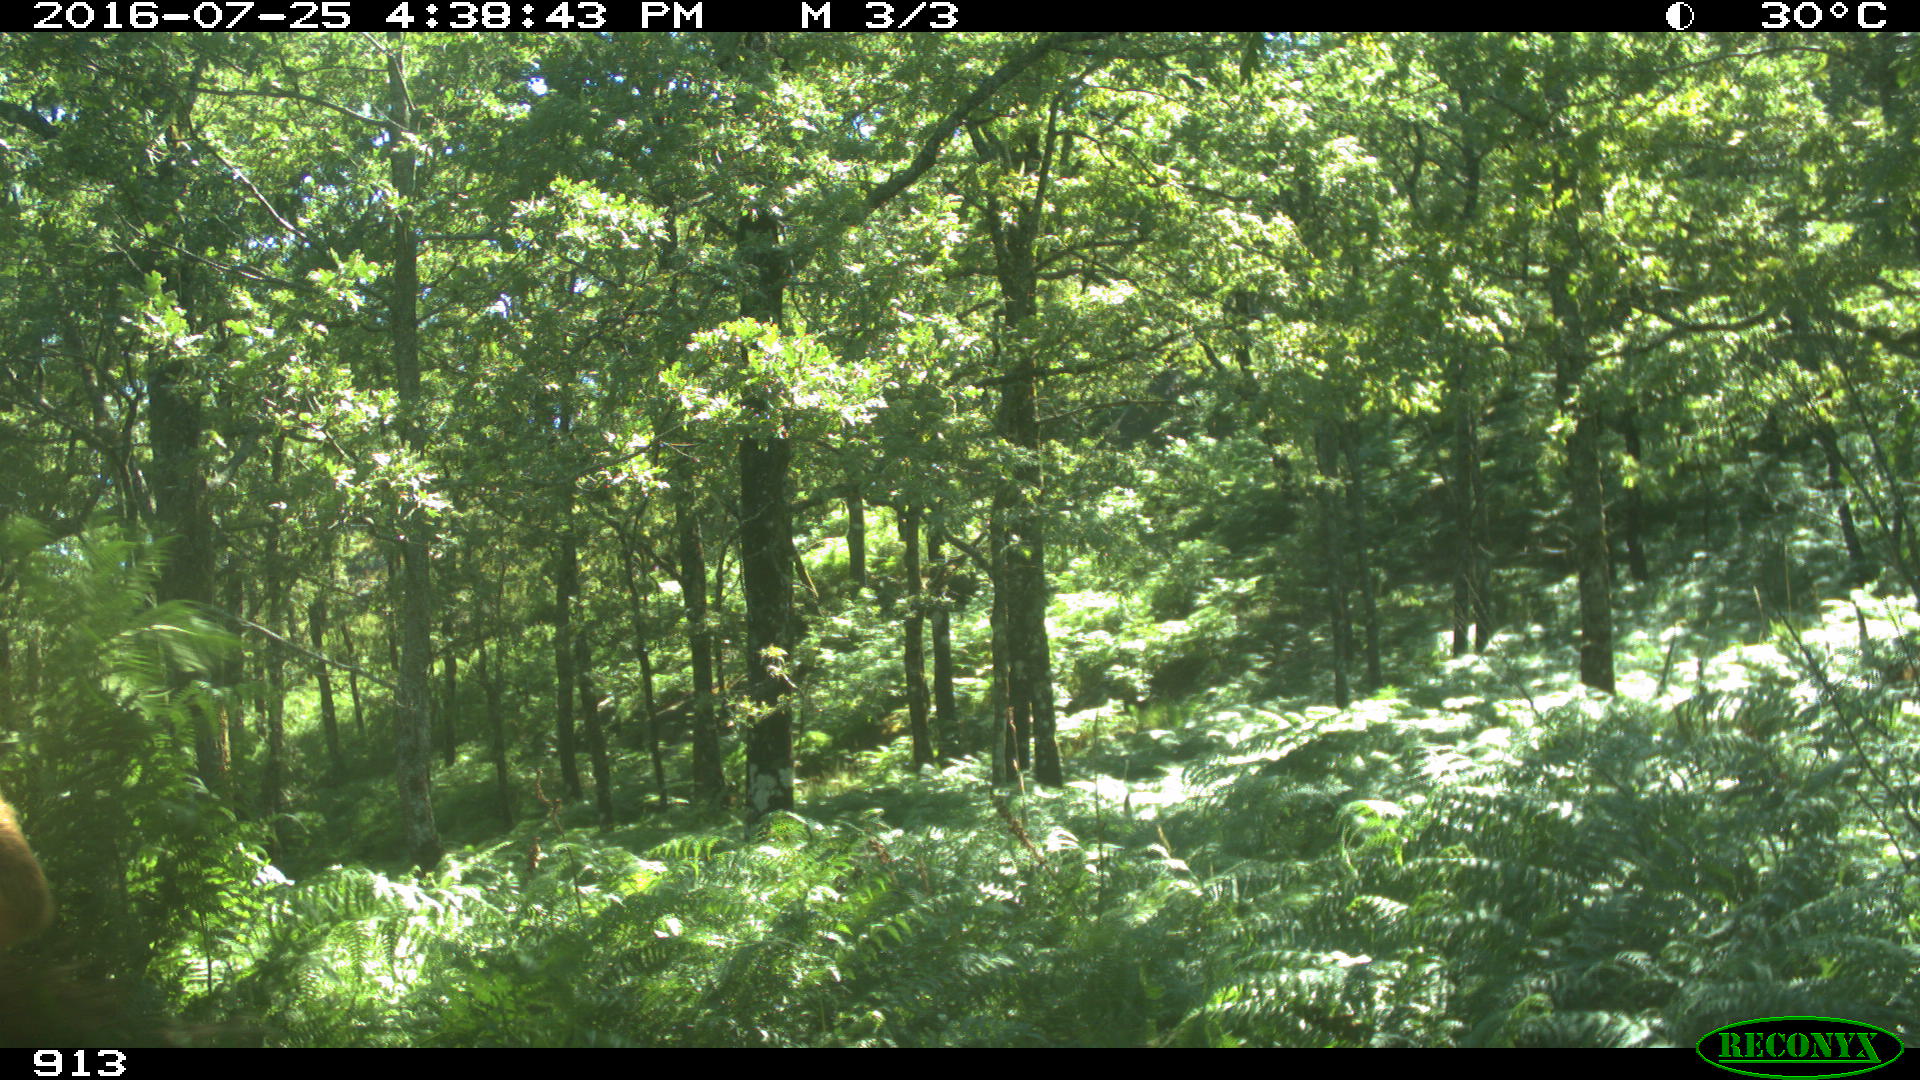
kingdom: Animalia
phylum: Chordata
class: Mammalia
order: Artiodactyla
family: Bovidae
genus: Bos
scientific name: Bos taurus
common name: Domesticated cattle
